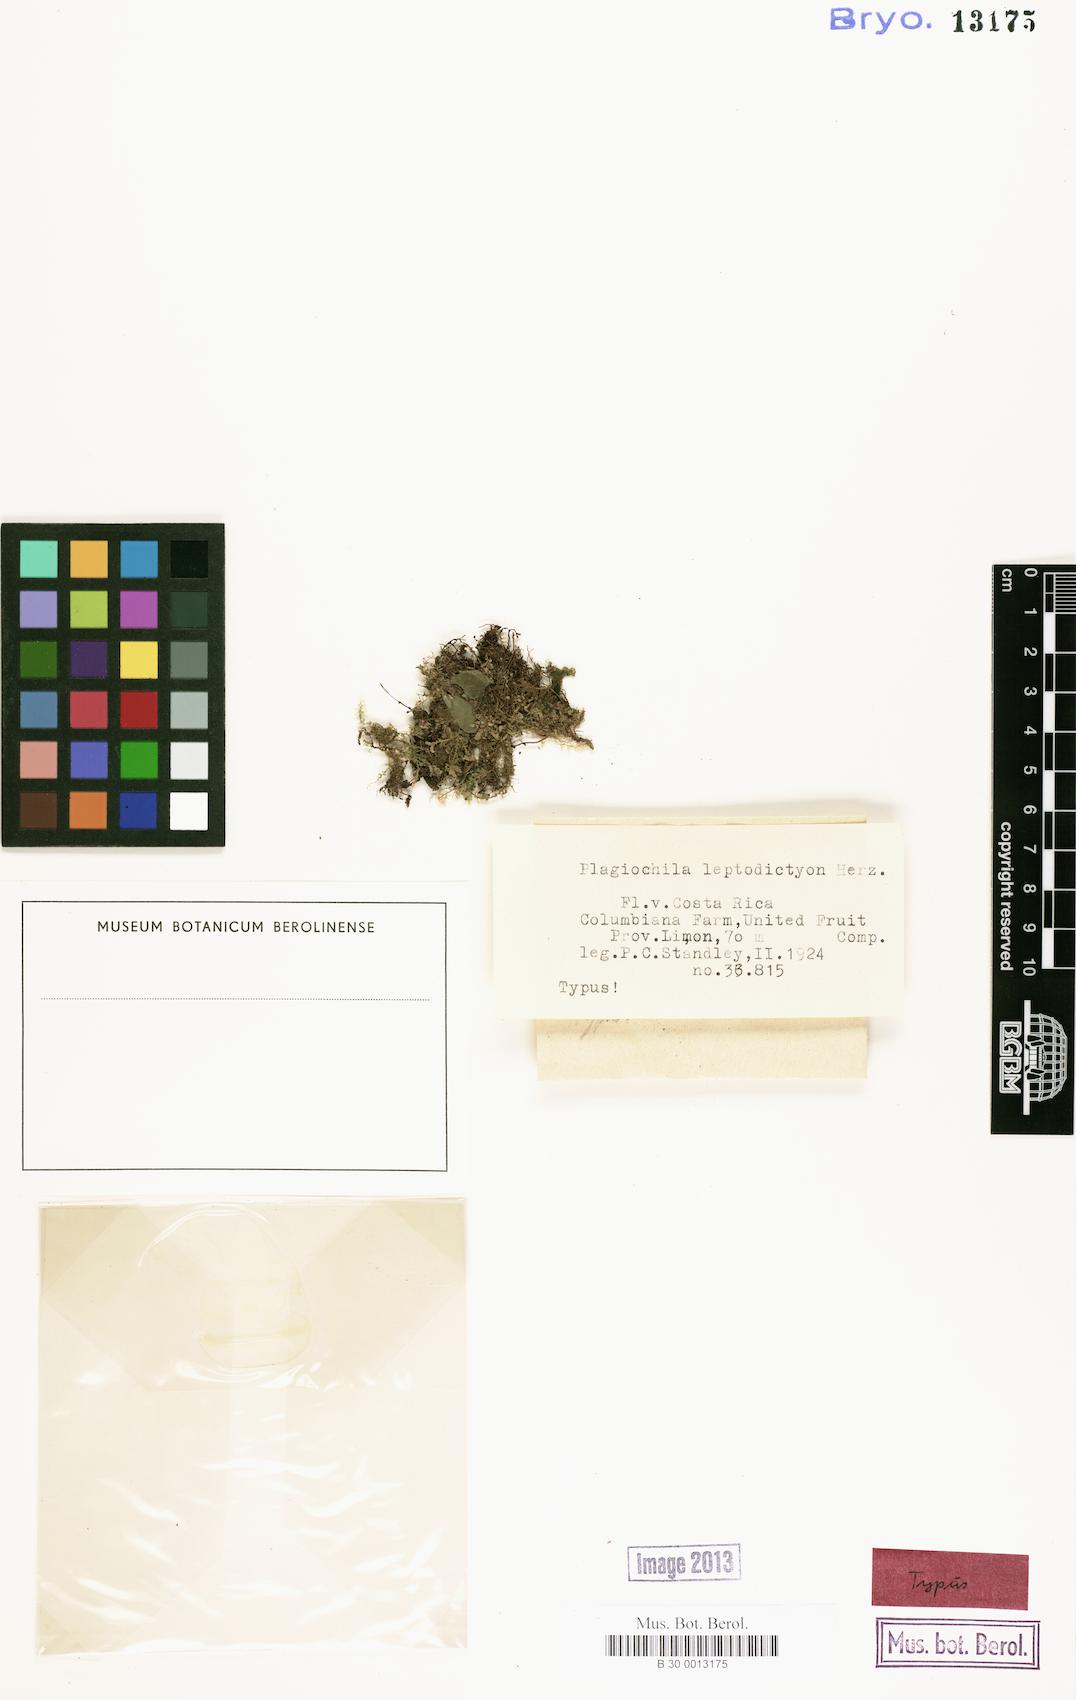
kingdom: Plantae
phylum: Marchantiophyta
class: Jungermanniopsida
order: Jungermanniales
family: Plagiochilaceae
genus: Plagiochila
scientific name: Plagiochila subplana
